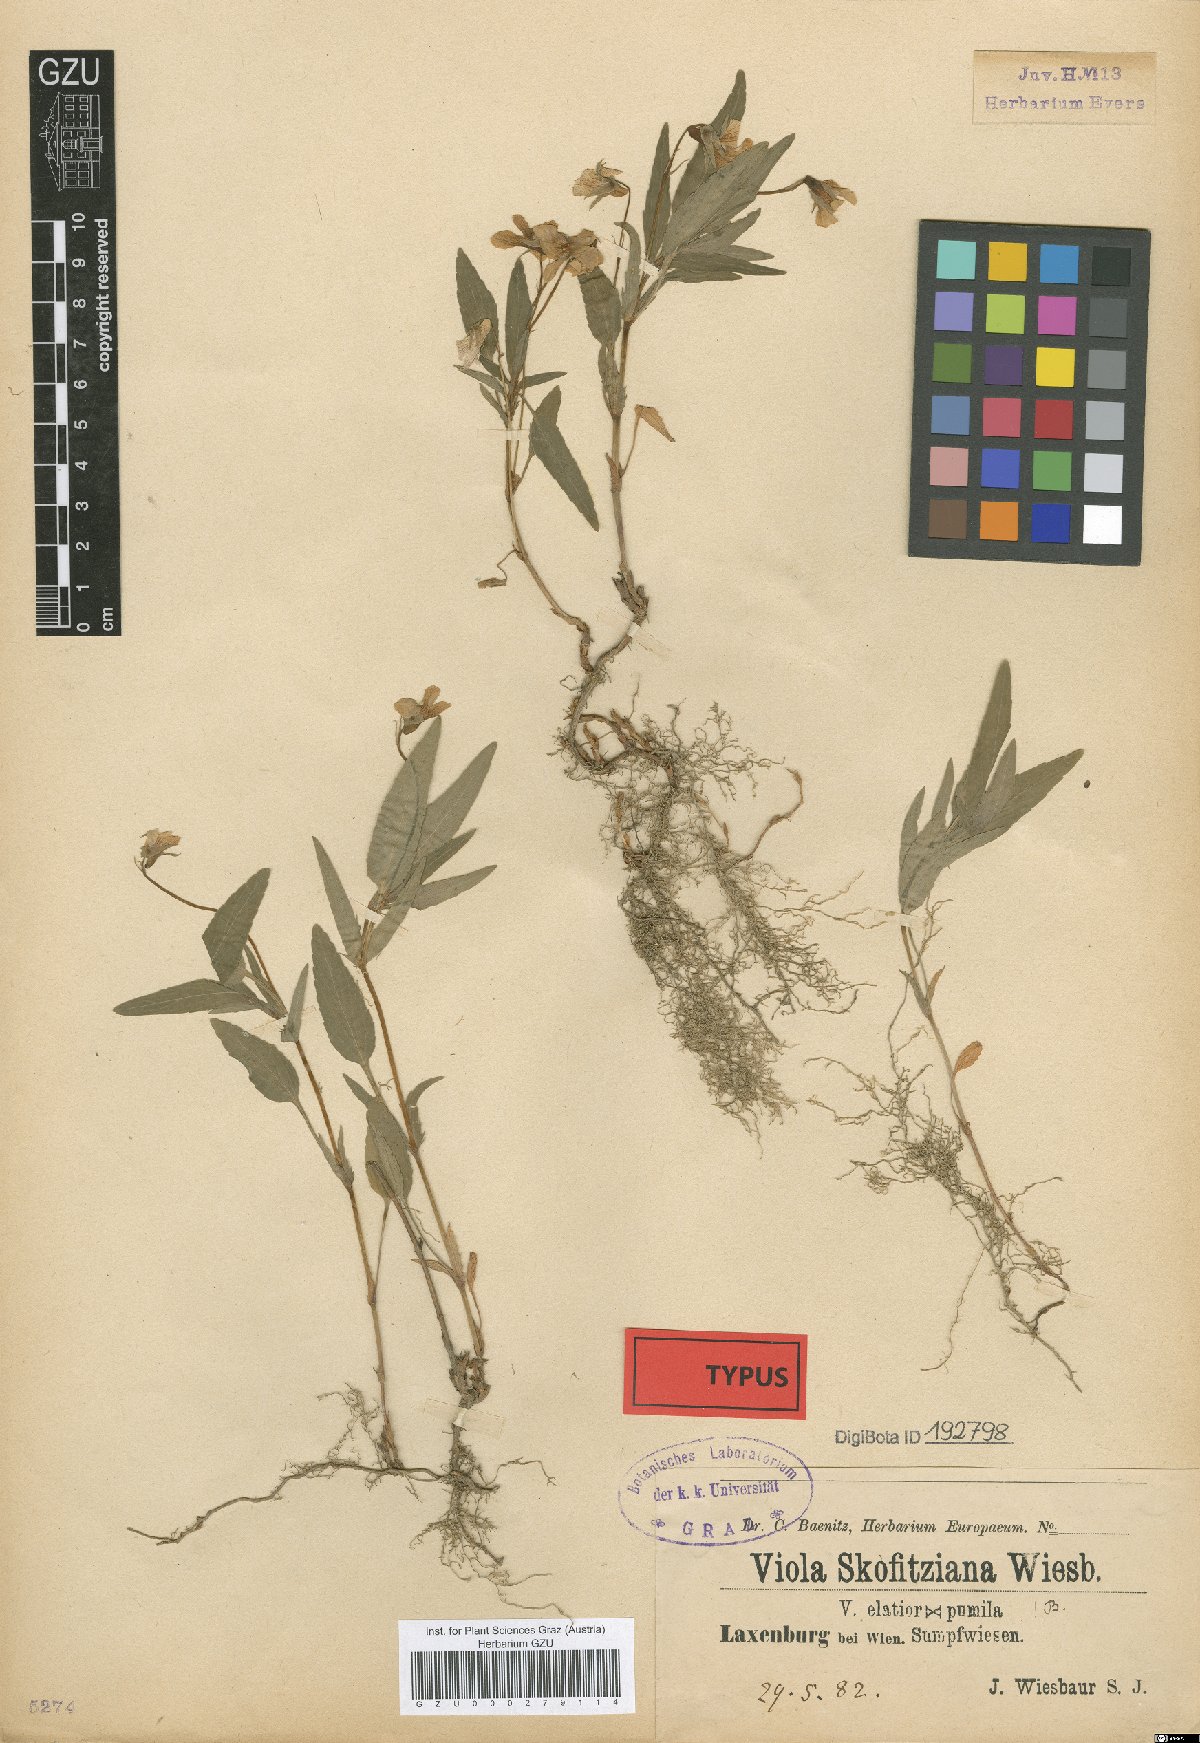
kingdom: Plantae
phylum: Tracheophyta
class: Magnoliopsida
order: Malpighiales
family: Violaceae
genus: Viola
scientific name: Viola skofitziana
